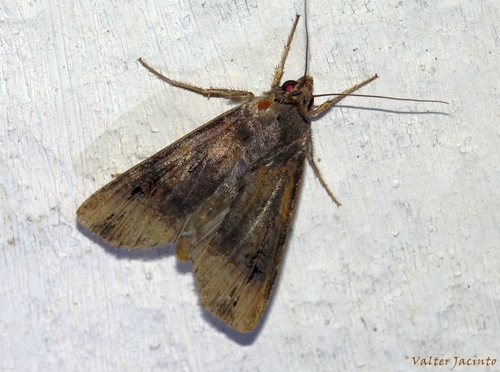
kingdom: Animalia
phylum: Arthropoda
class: Insecta
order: Lepidoptera
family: Noctuidae
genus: Agrotis
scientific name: Agrotis ipsilon
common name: Dark sword-grass
